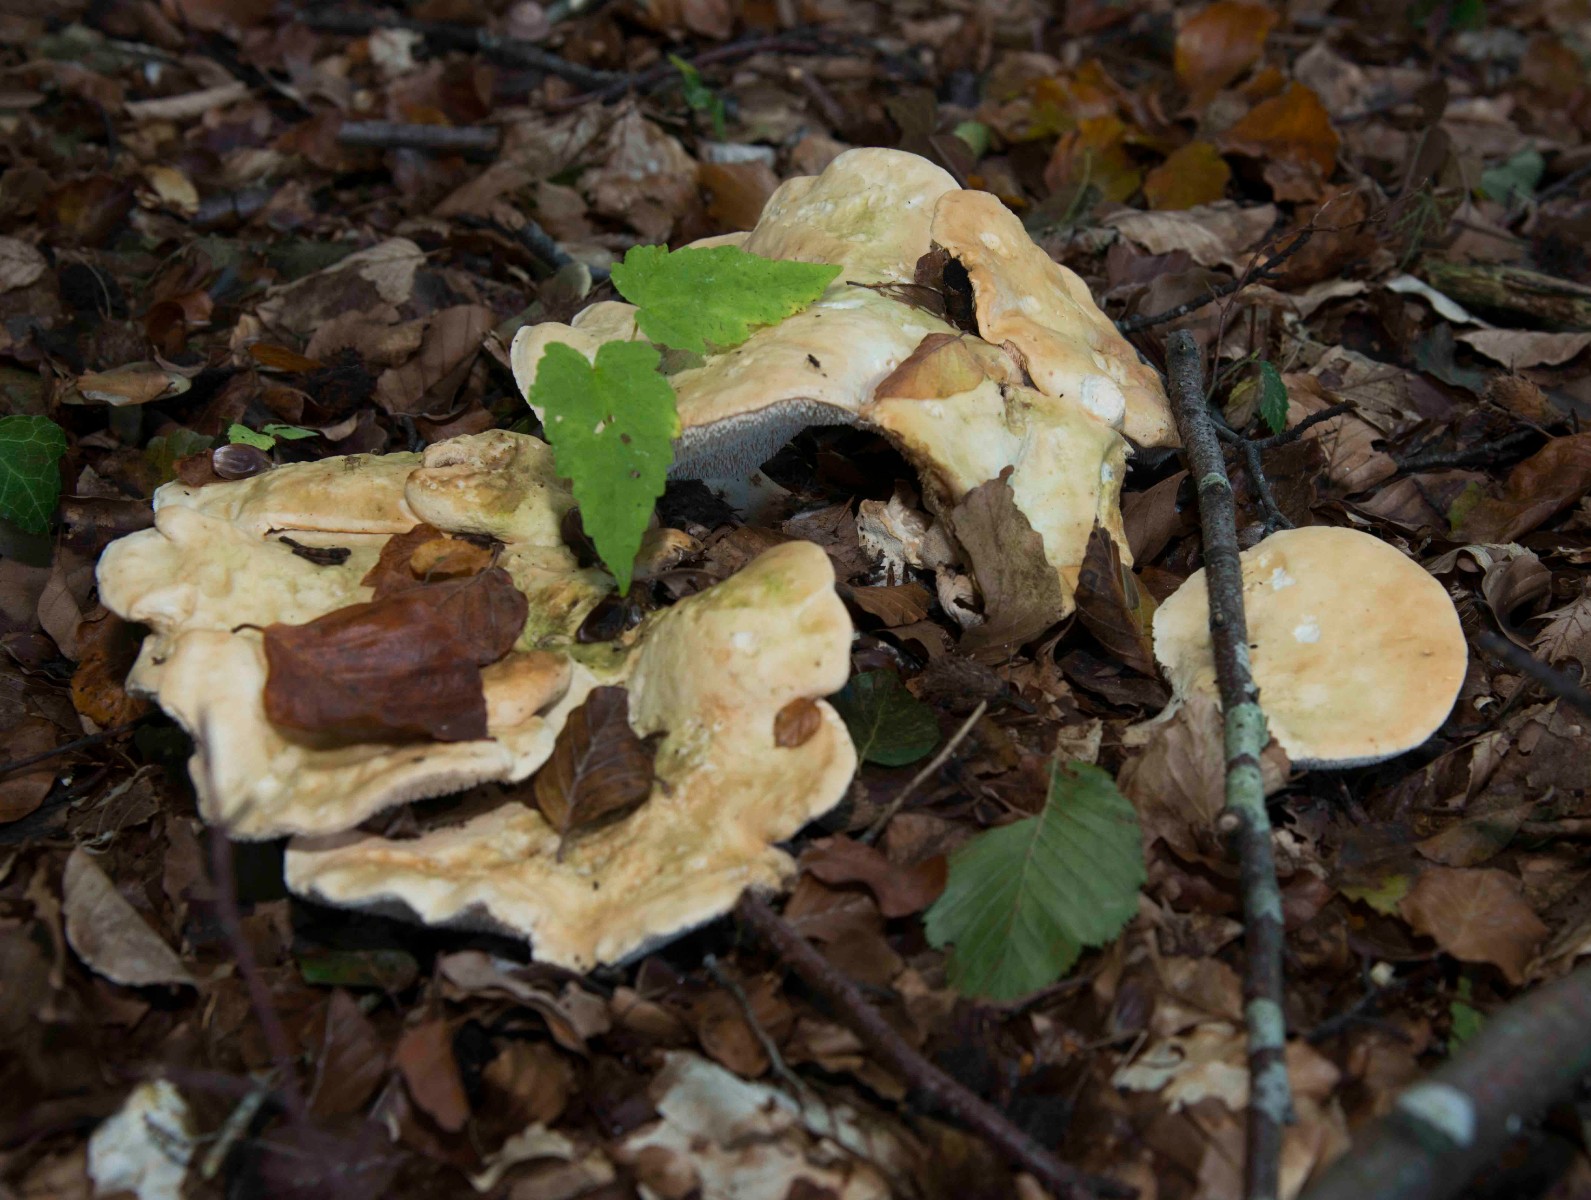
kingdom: Fungi
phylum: Basidiomycota
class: Agaricomycetes
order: Cantharellales
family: Hydnaceae
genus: Hydnum
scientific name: Hydnum
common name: pigsvamp
